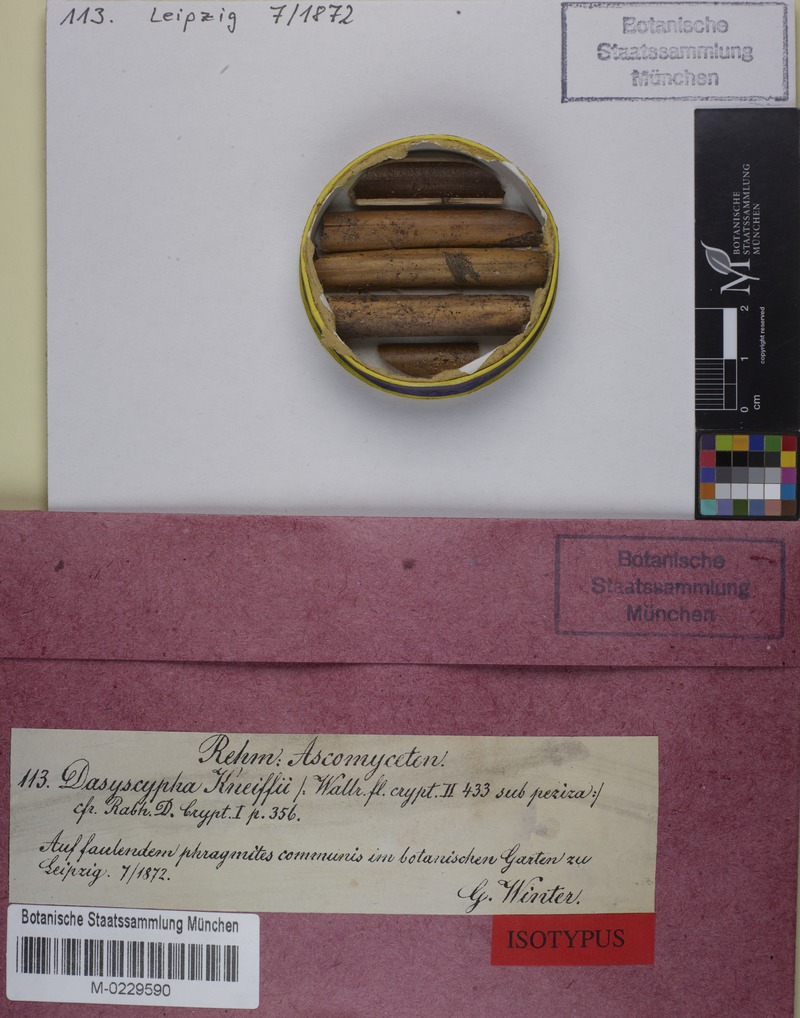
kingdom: Fungi
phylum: Ascomycota
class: Leotiomycetes
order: Helotiales
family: Lachnaceae
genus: Albotricha
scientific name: Albotricha winteri
